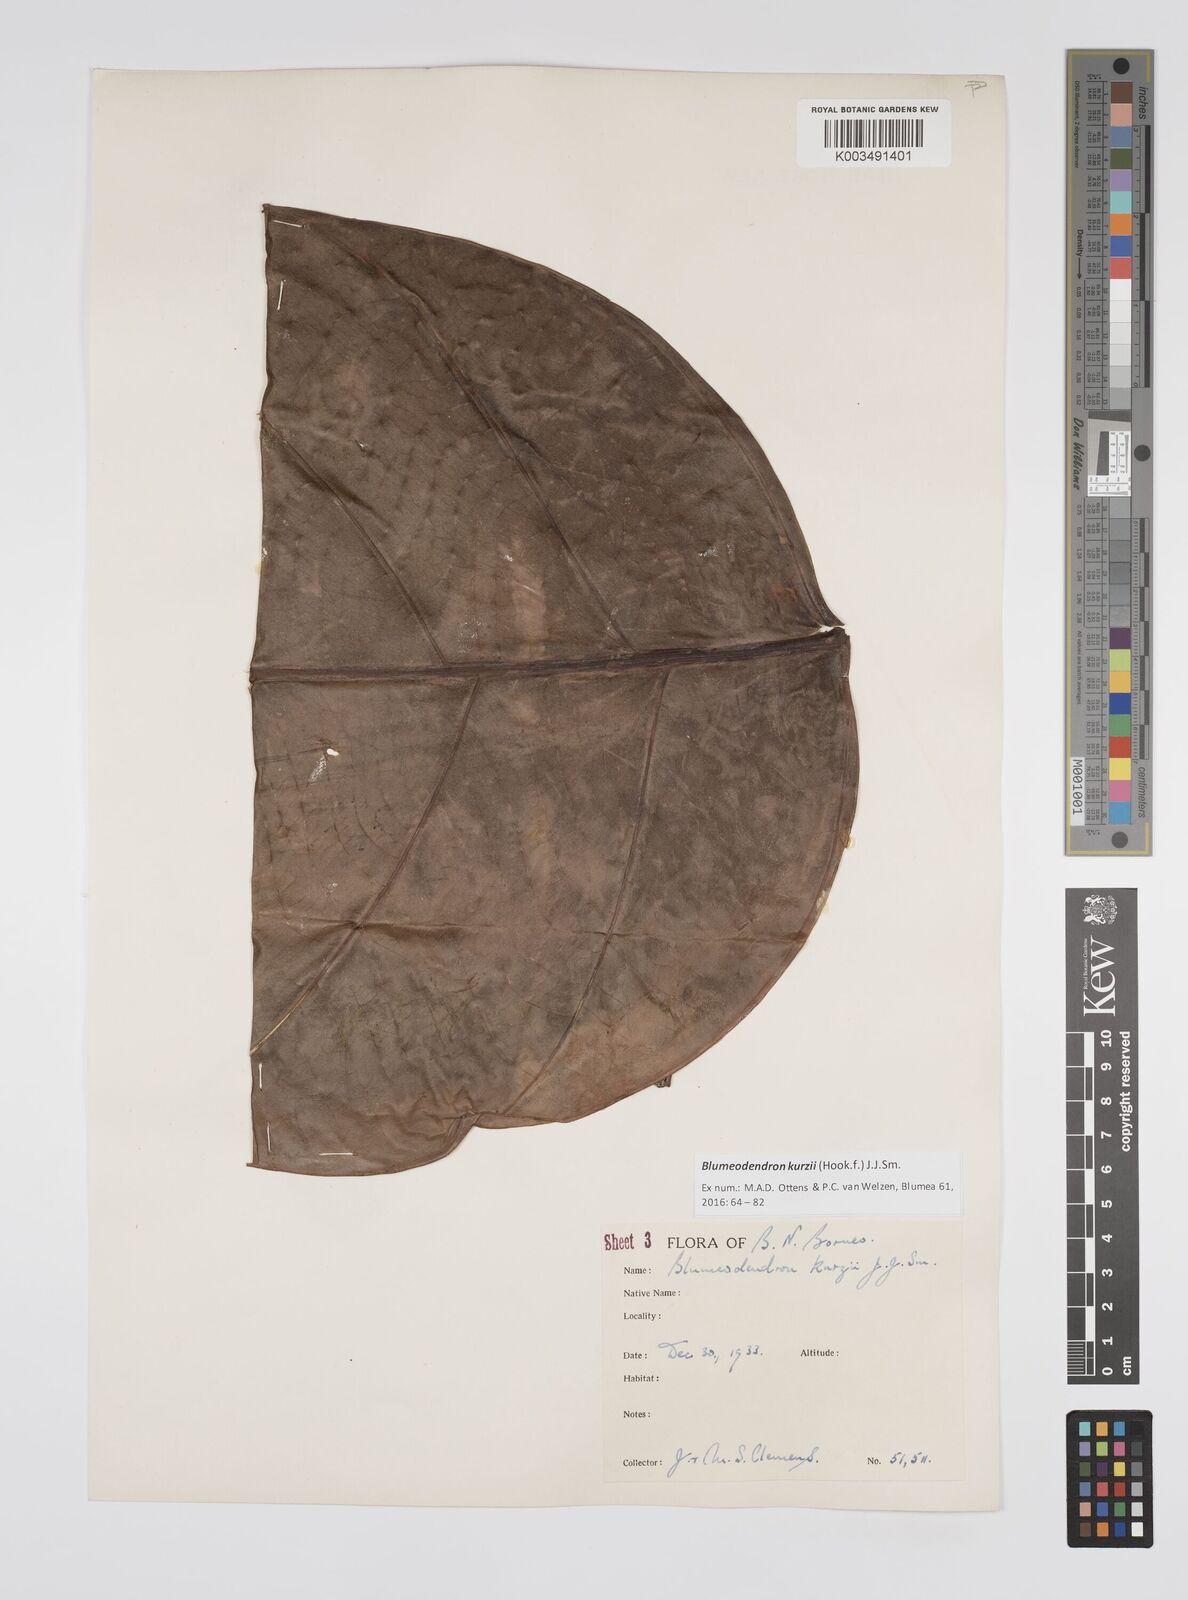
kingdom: Plantae
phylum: Tracheophyta
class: Magnoliopsida
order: Malpighiales
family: Euphorbiaceae
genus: Blumeodendron
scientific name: Blumeodendron kurzii
